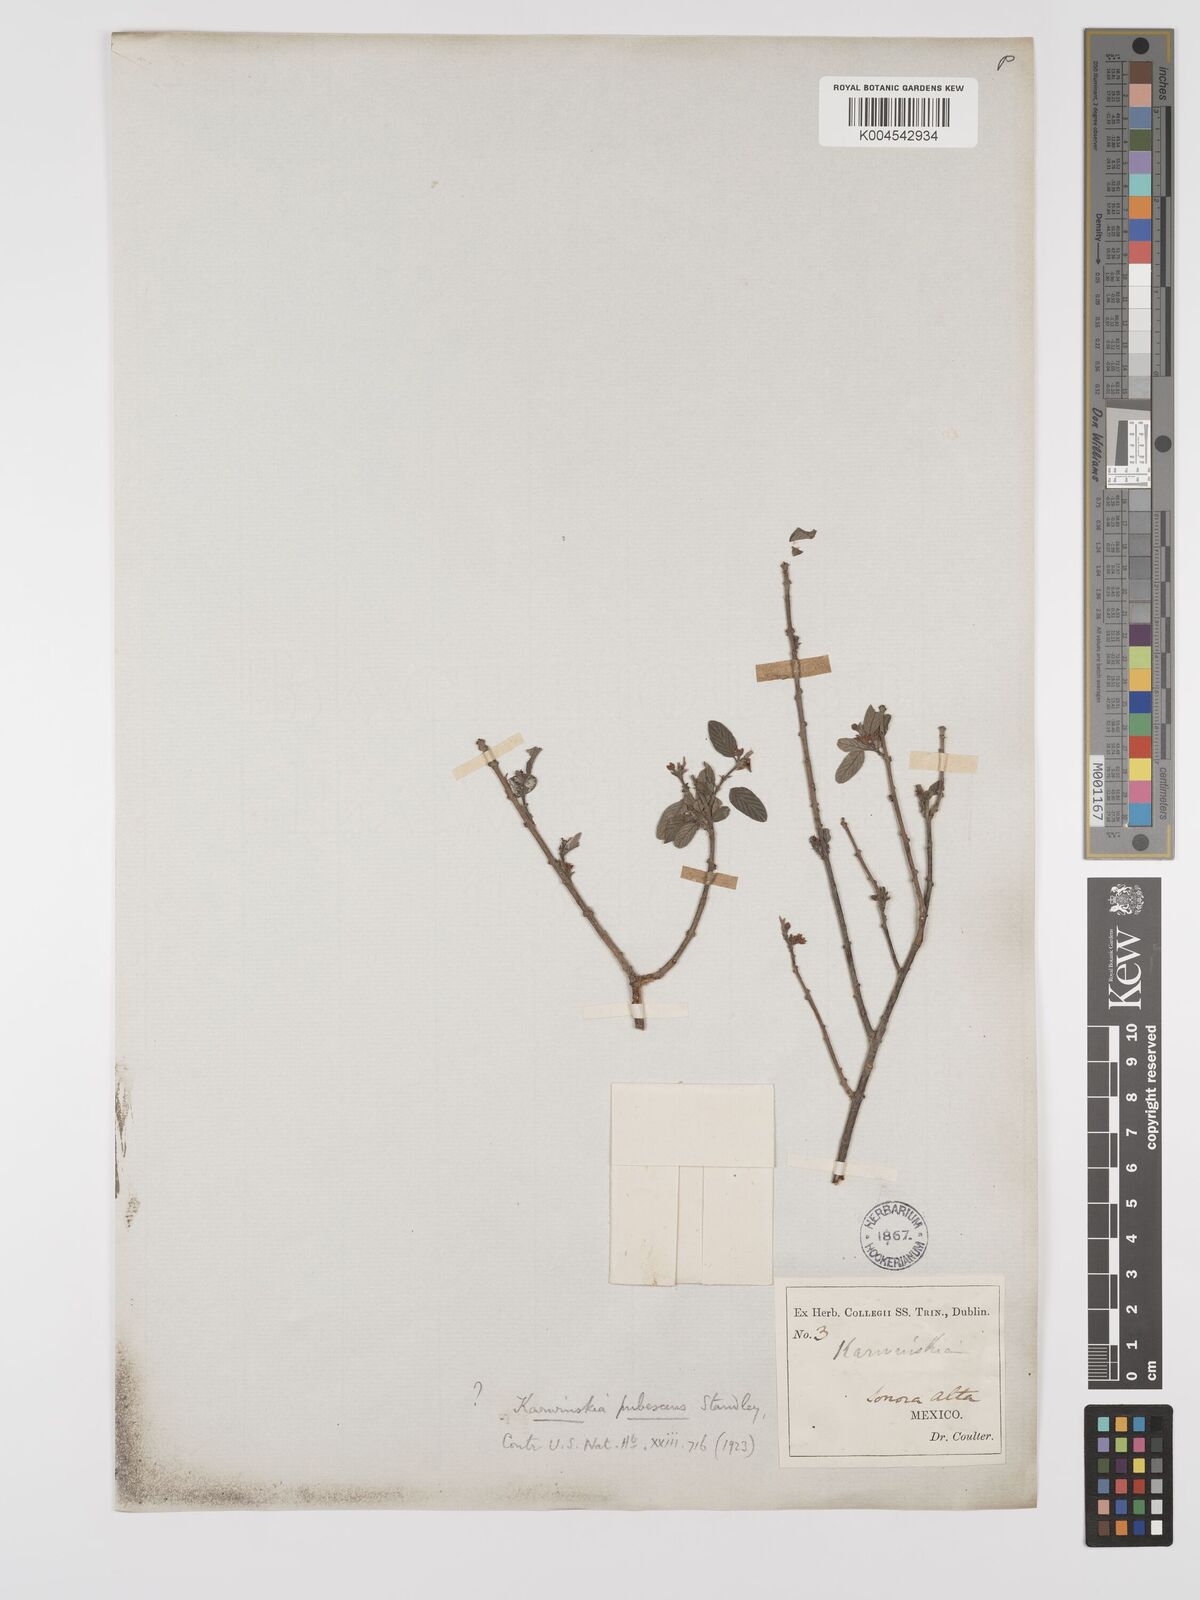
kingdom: Plantae
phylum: Tracheophyta
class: Magnoliopsida
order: Rosales
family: Rhamnaceae
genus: Karwinskia
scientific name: Karwinskia parvifolia
